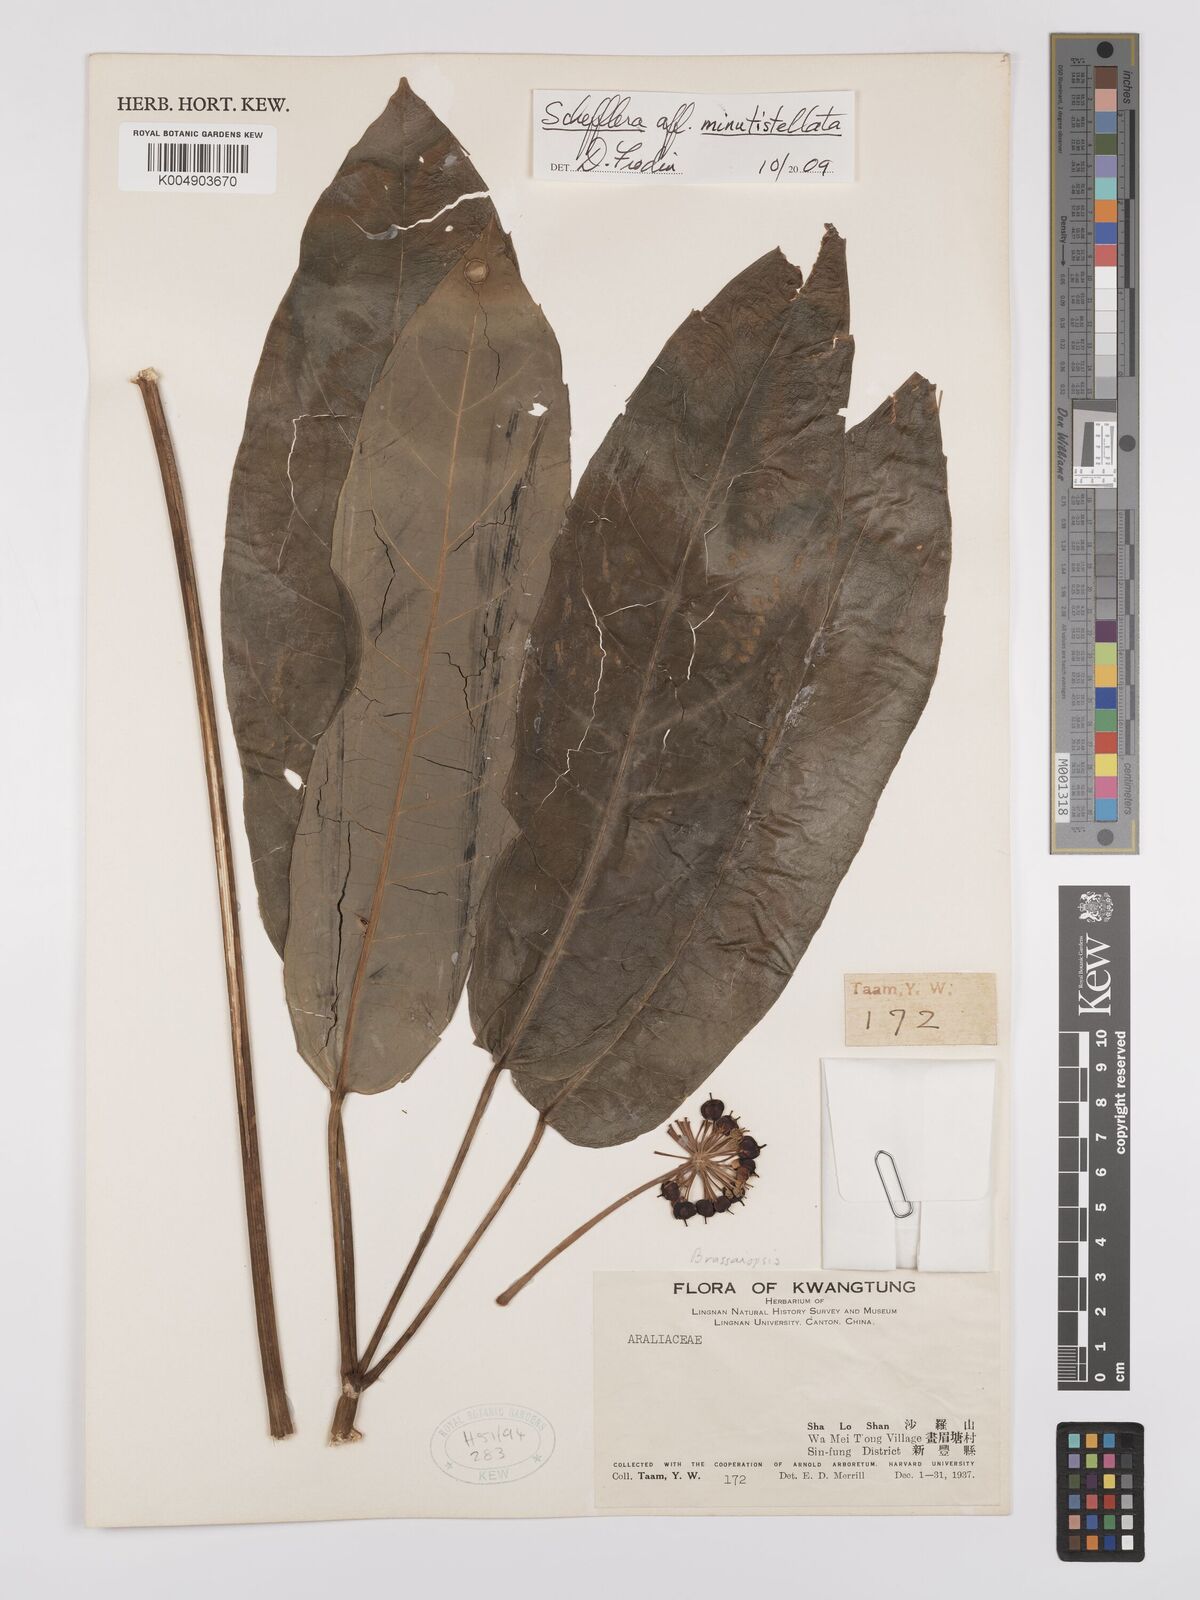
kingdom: Plantae
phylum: Tracheophyta
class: Magnoliopsida
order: Apiales
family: Araliaceae
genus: Heptapleurum
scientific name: Heptapleurum minutistellatum
